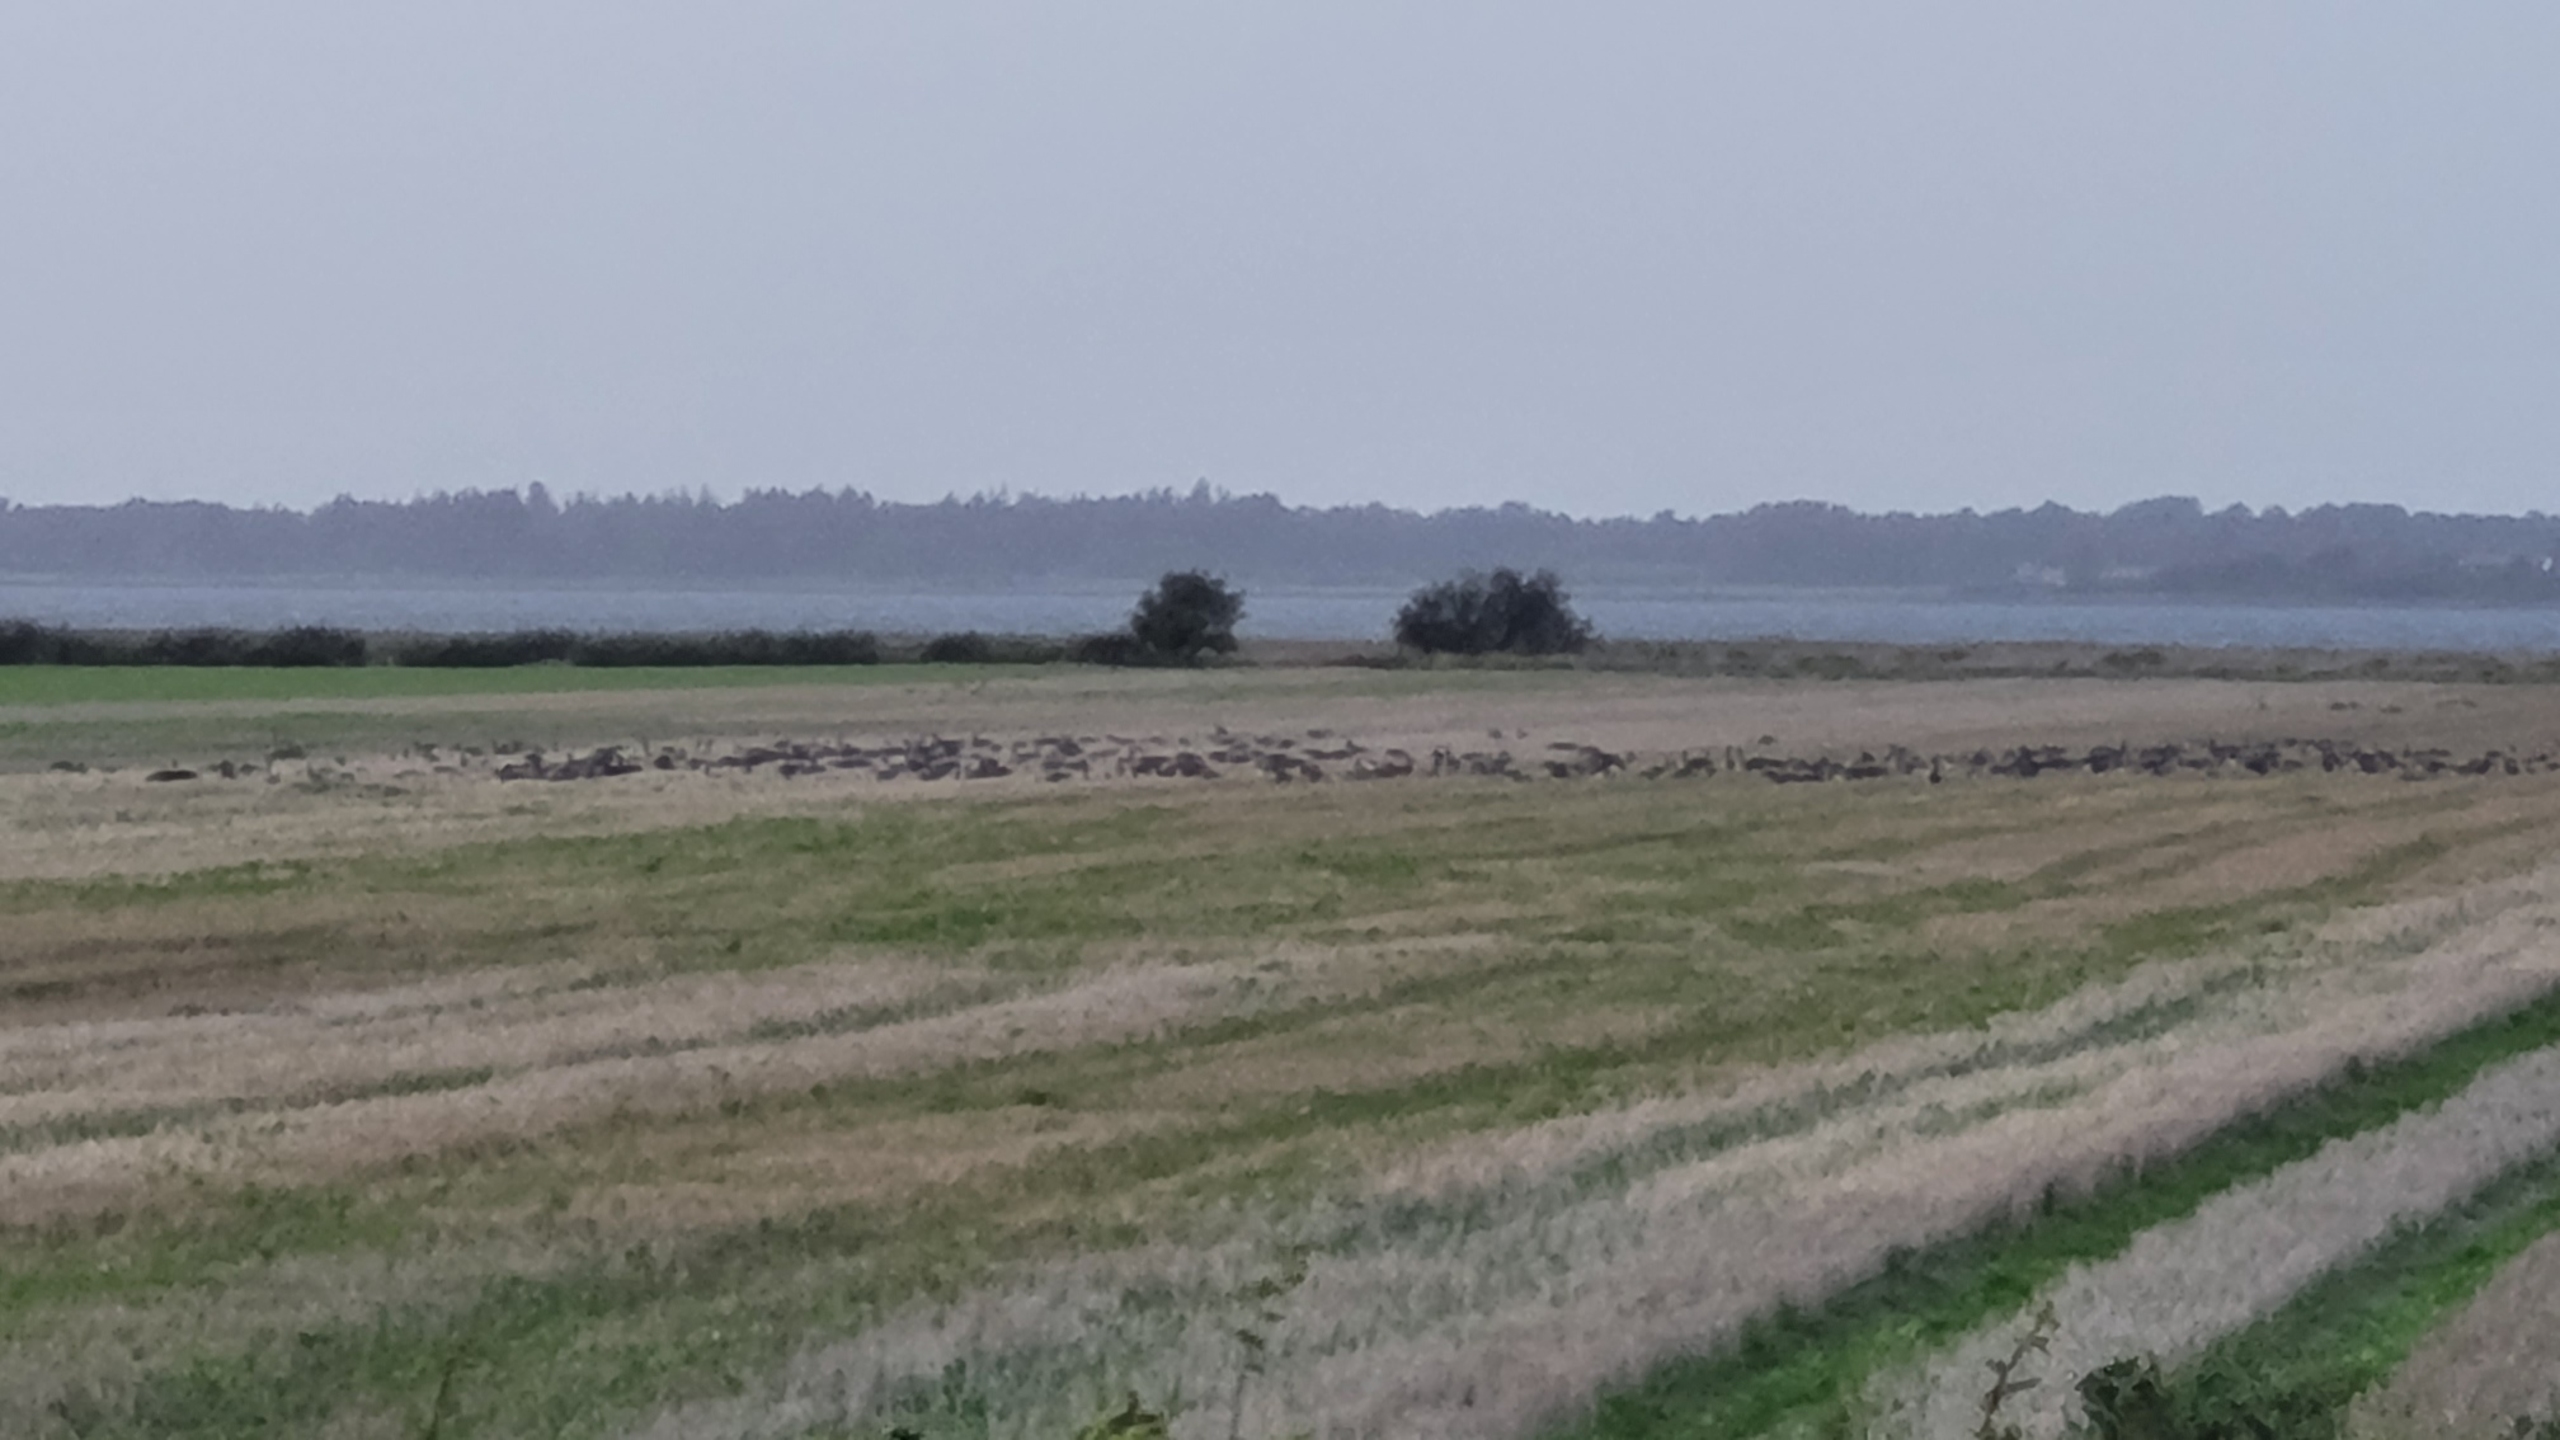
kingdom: Animalia
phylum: Chordata
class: Aves
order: Anseriformes
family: Anatidae
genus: Anser
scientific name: Anser anser
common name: Grågås
